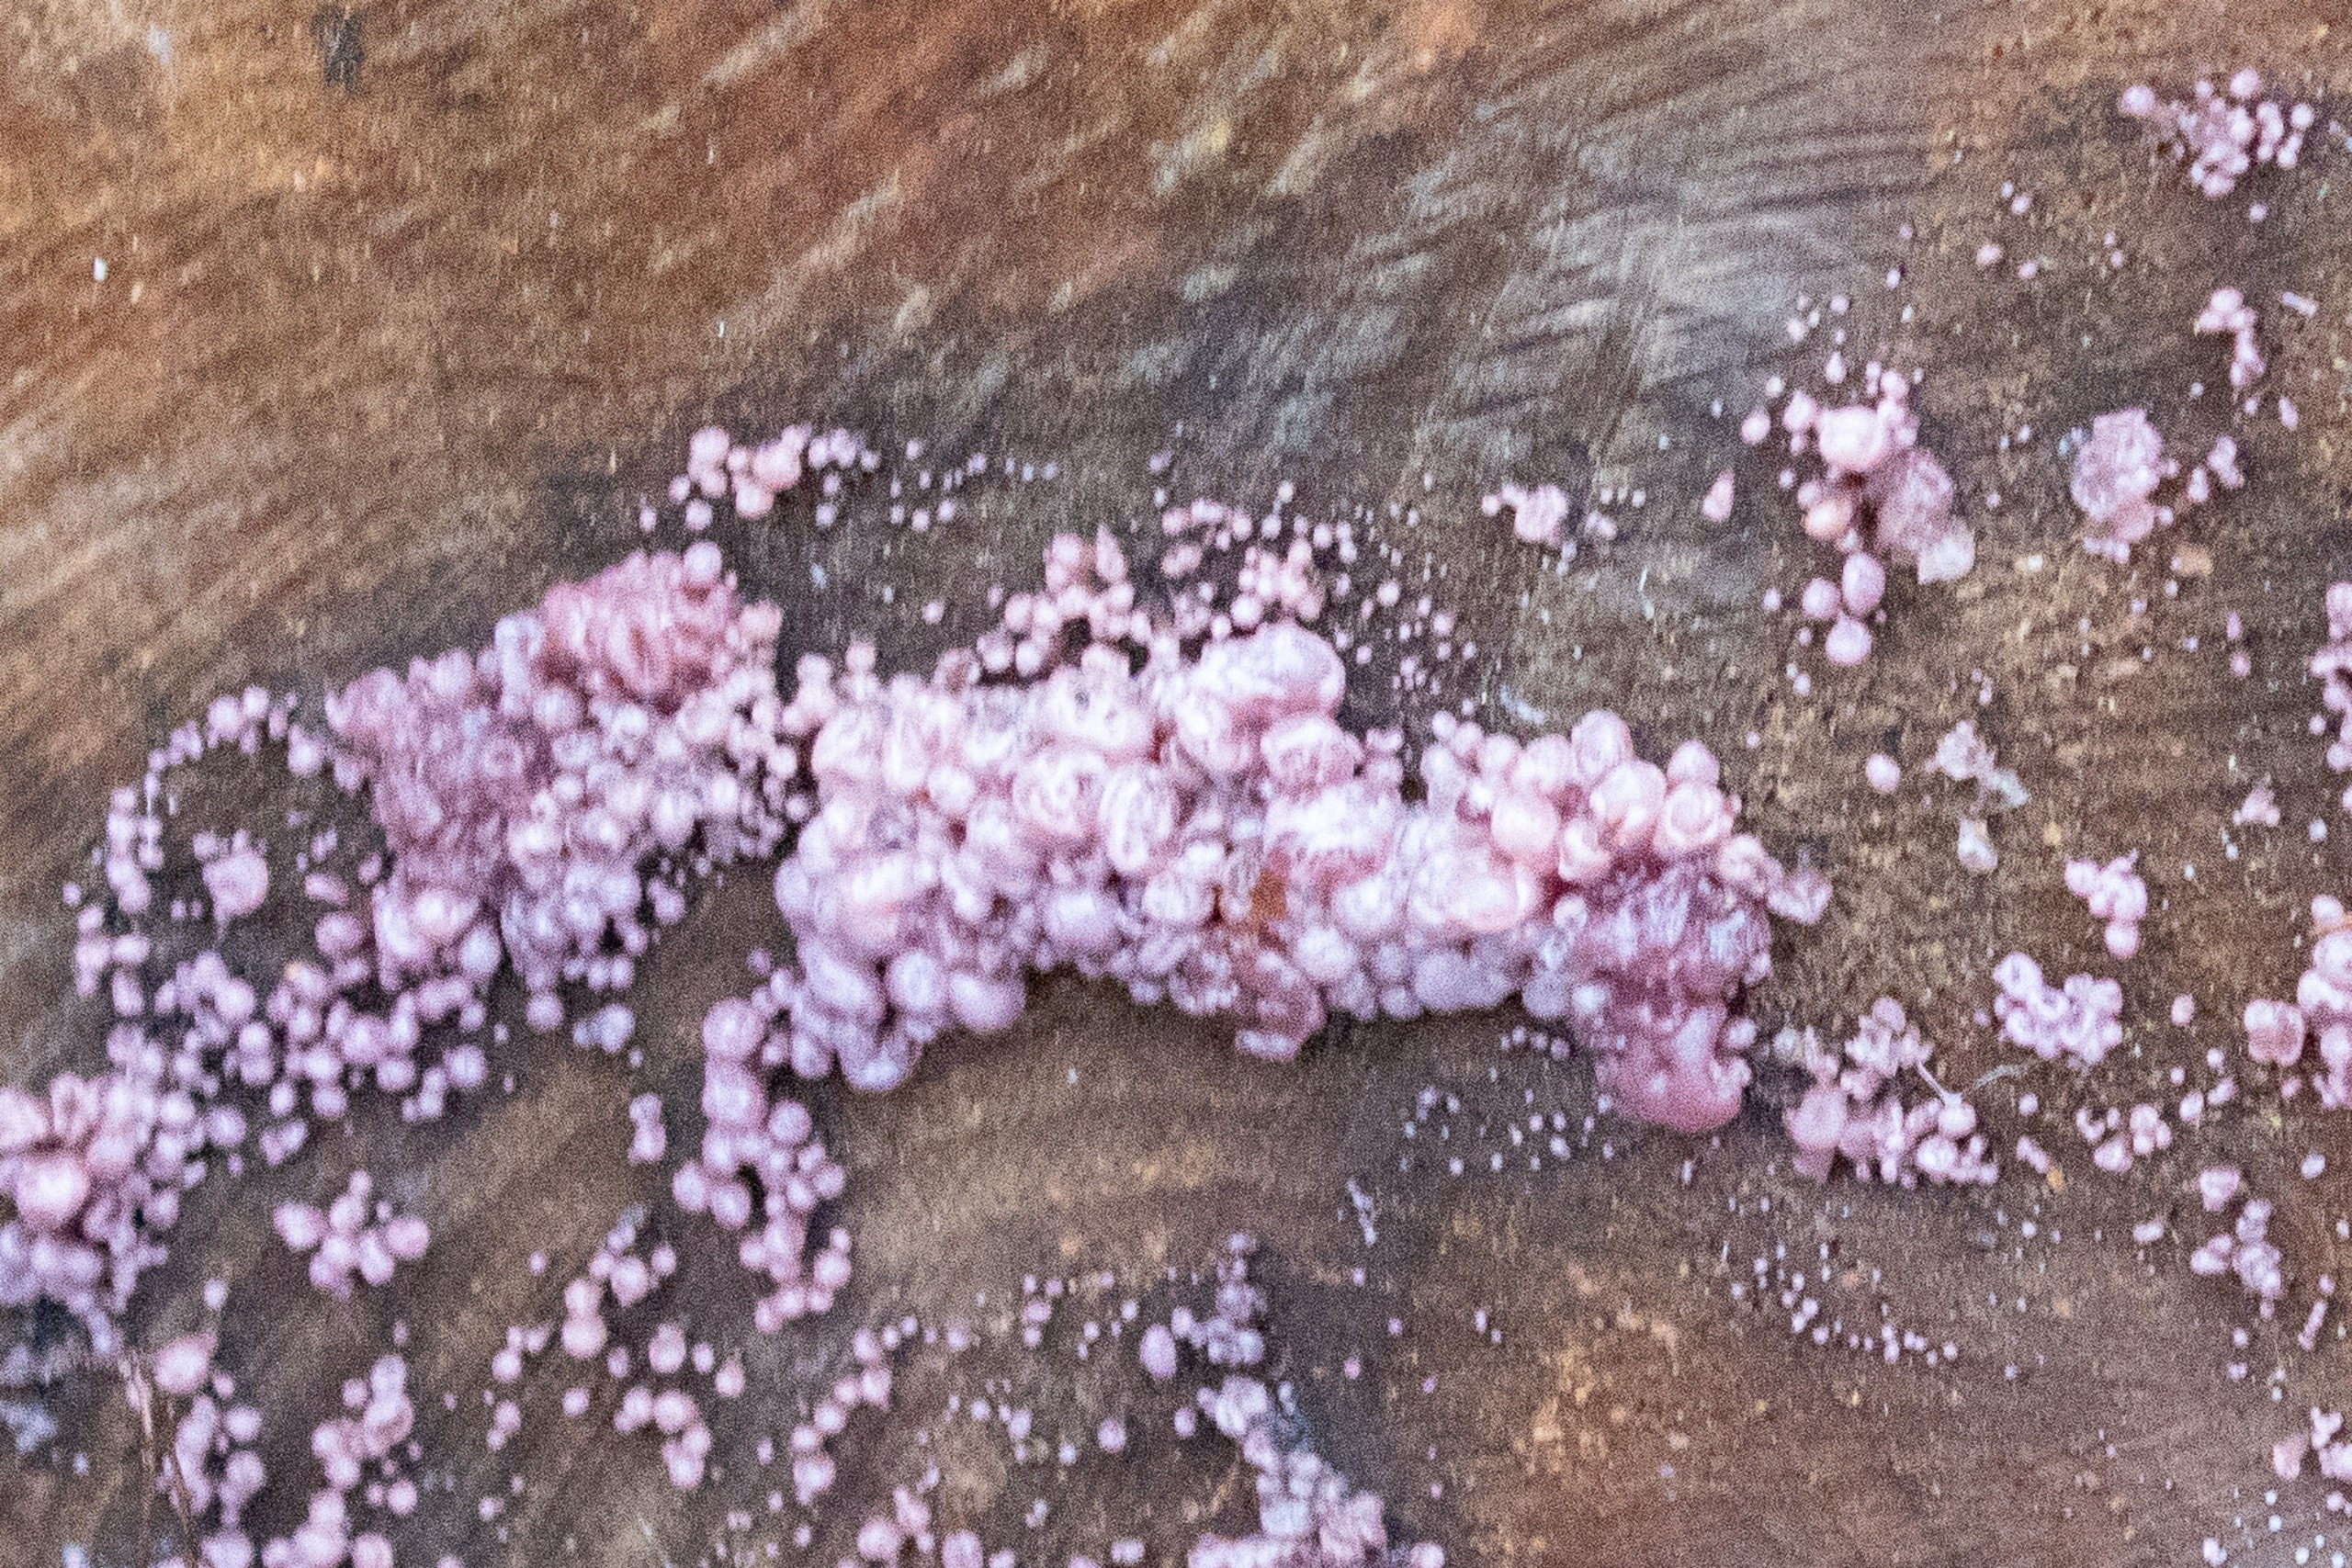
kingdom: Fungi
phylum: Ascomycota
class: Leotiomycetes
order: Helotiales
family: Gelatinodiscaceae
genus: Ascocoryne
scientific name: Ascocoryne sarcoides
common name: Rødlilla sejskive
